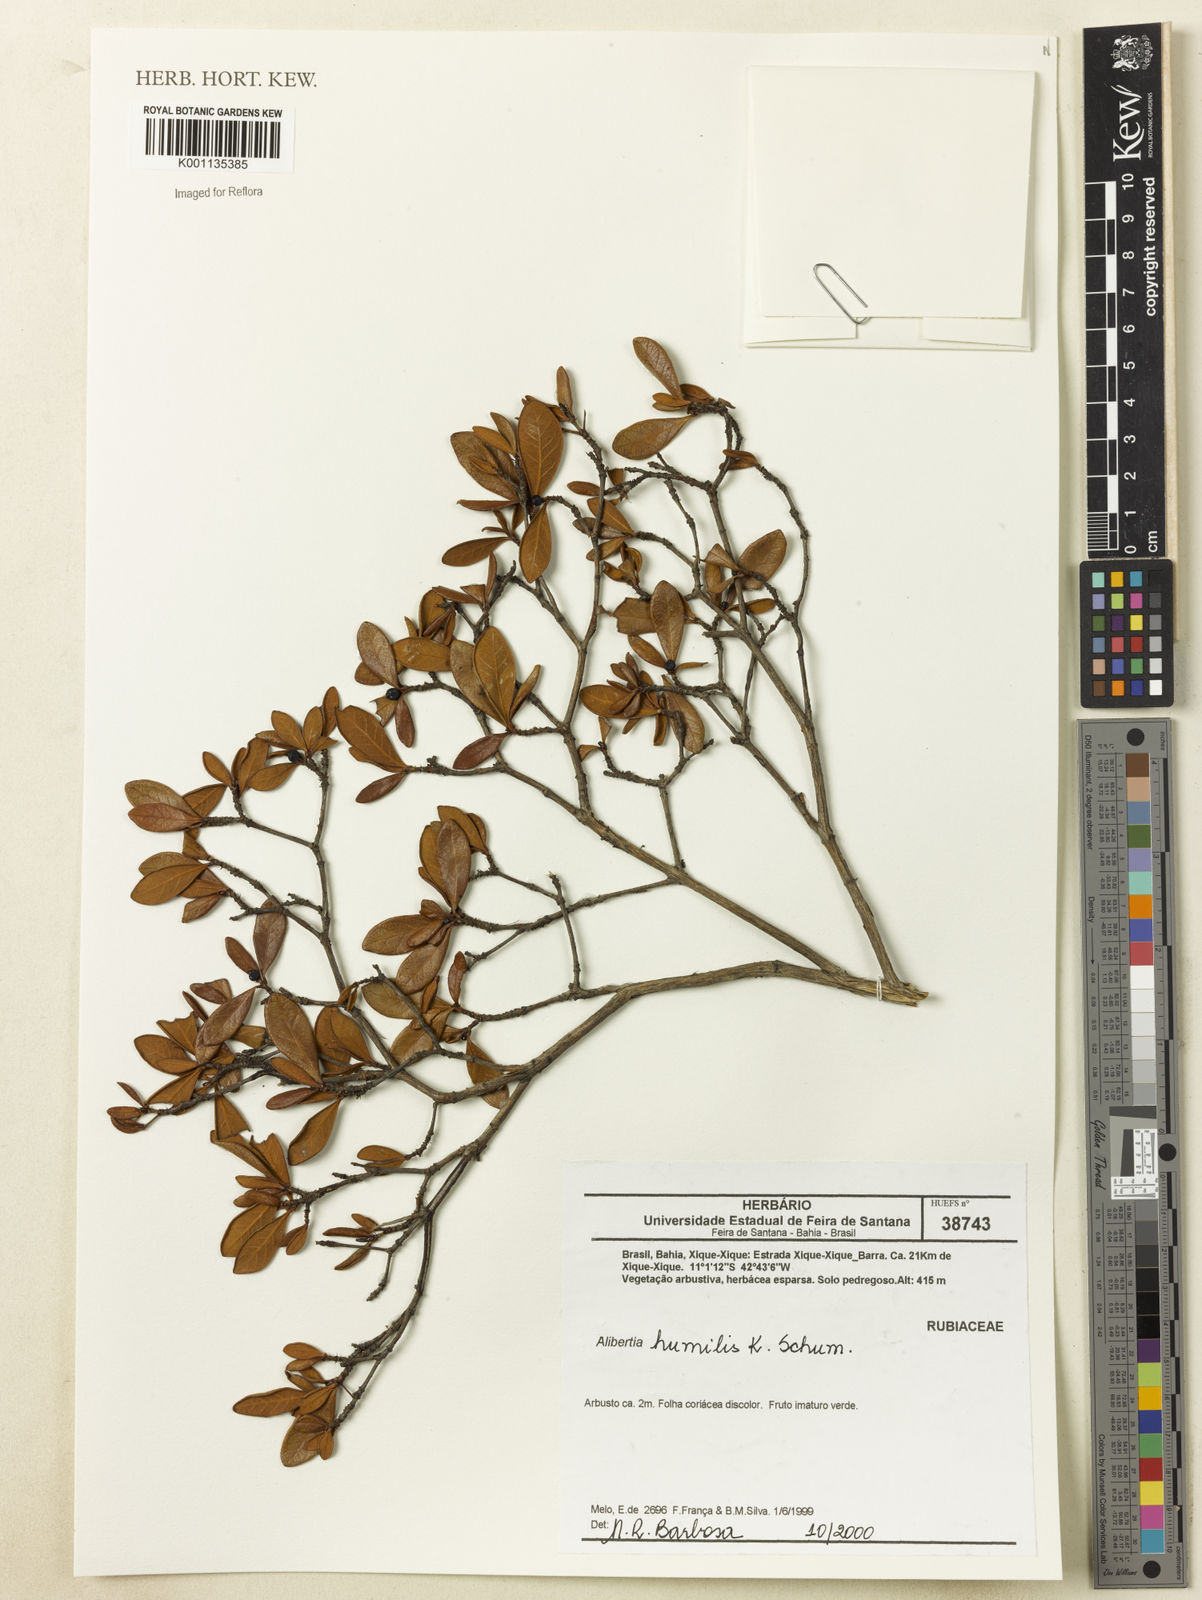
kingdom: Plantae
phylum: Tracheophyta
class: Magnoliopsida
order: Gentianales
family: Rubiaceae
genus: Cordiera
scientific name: Cordiera humilis
